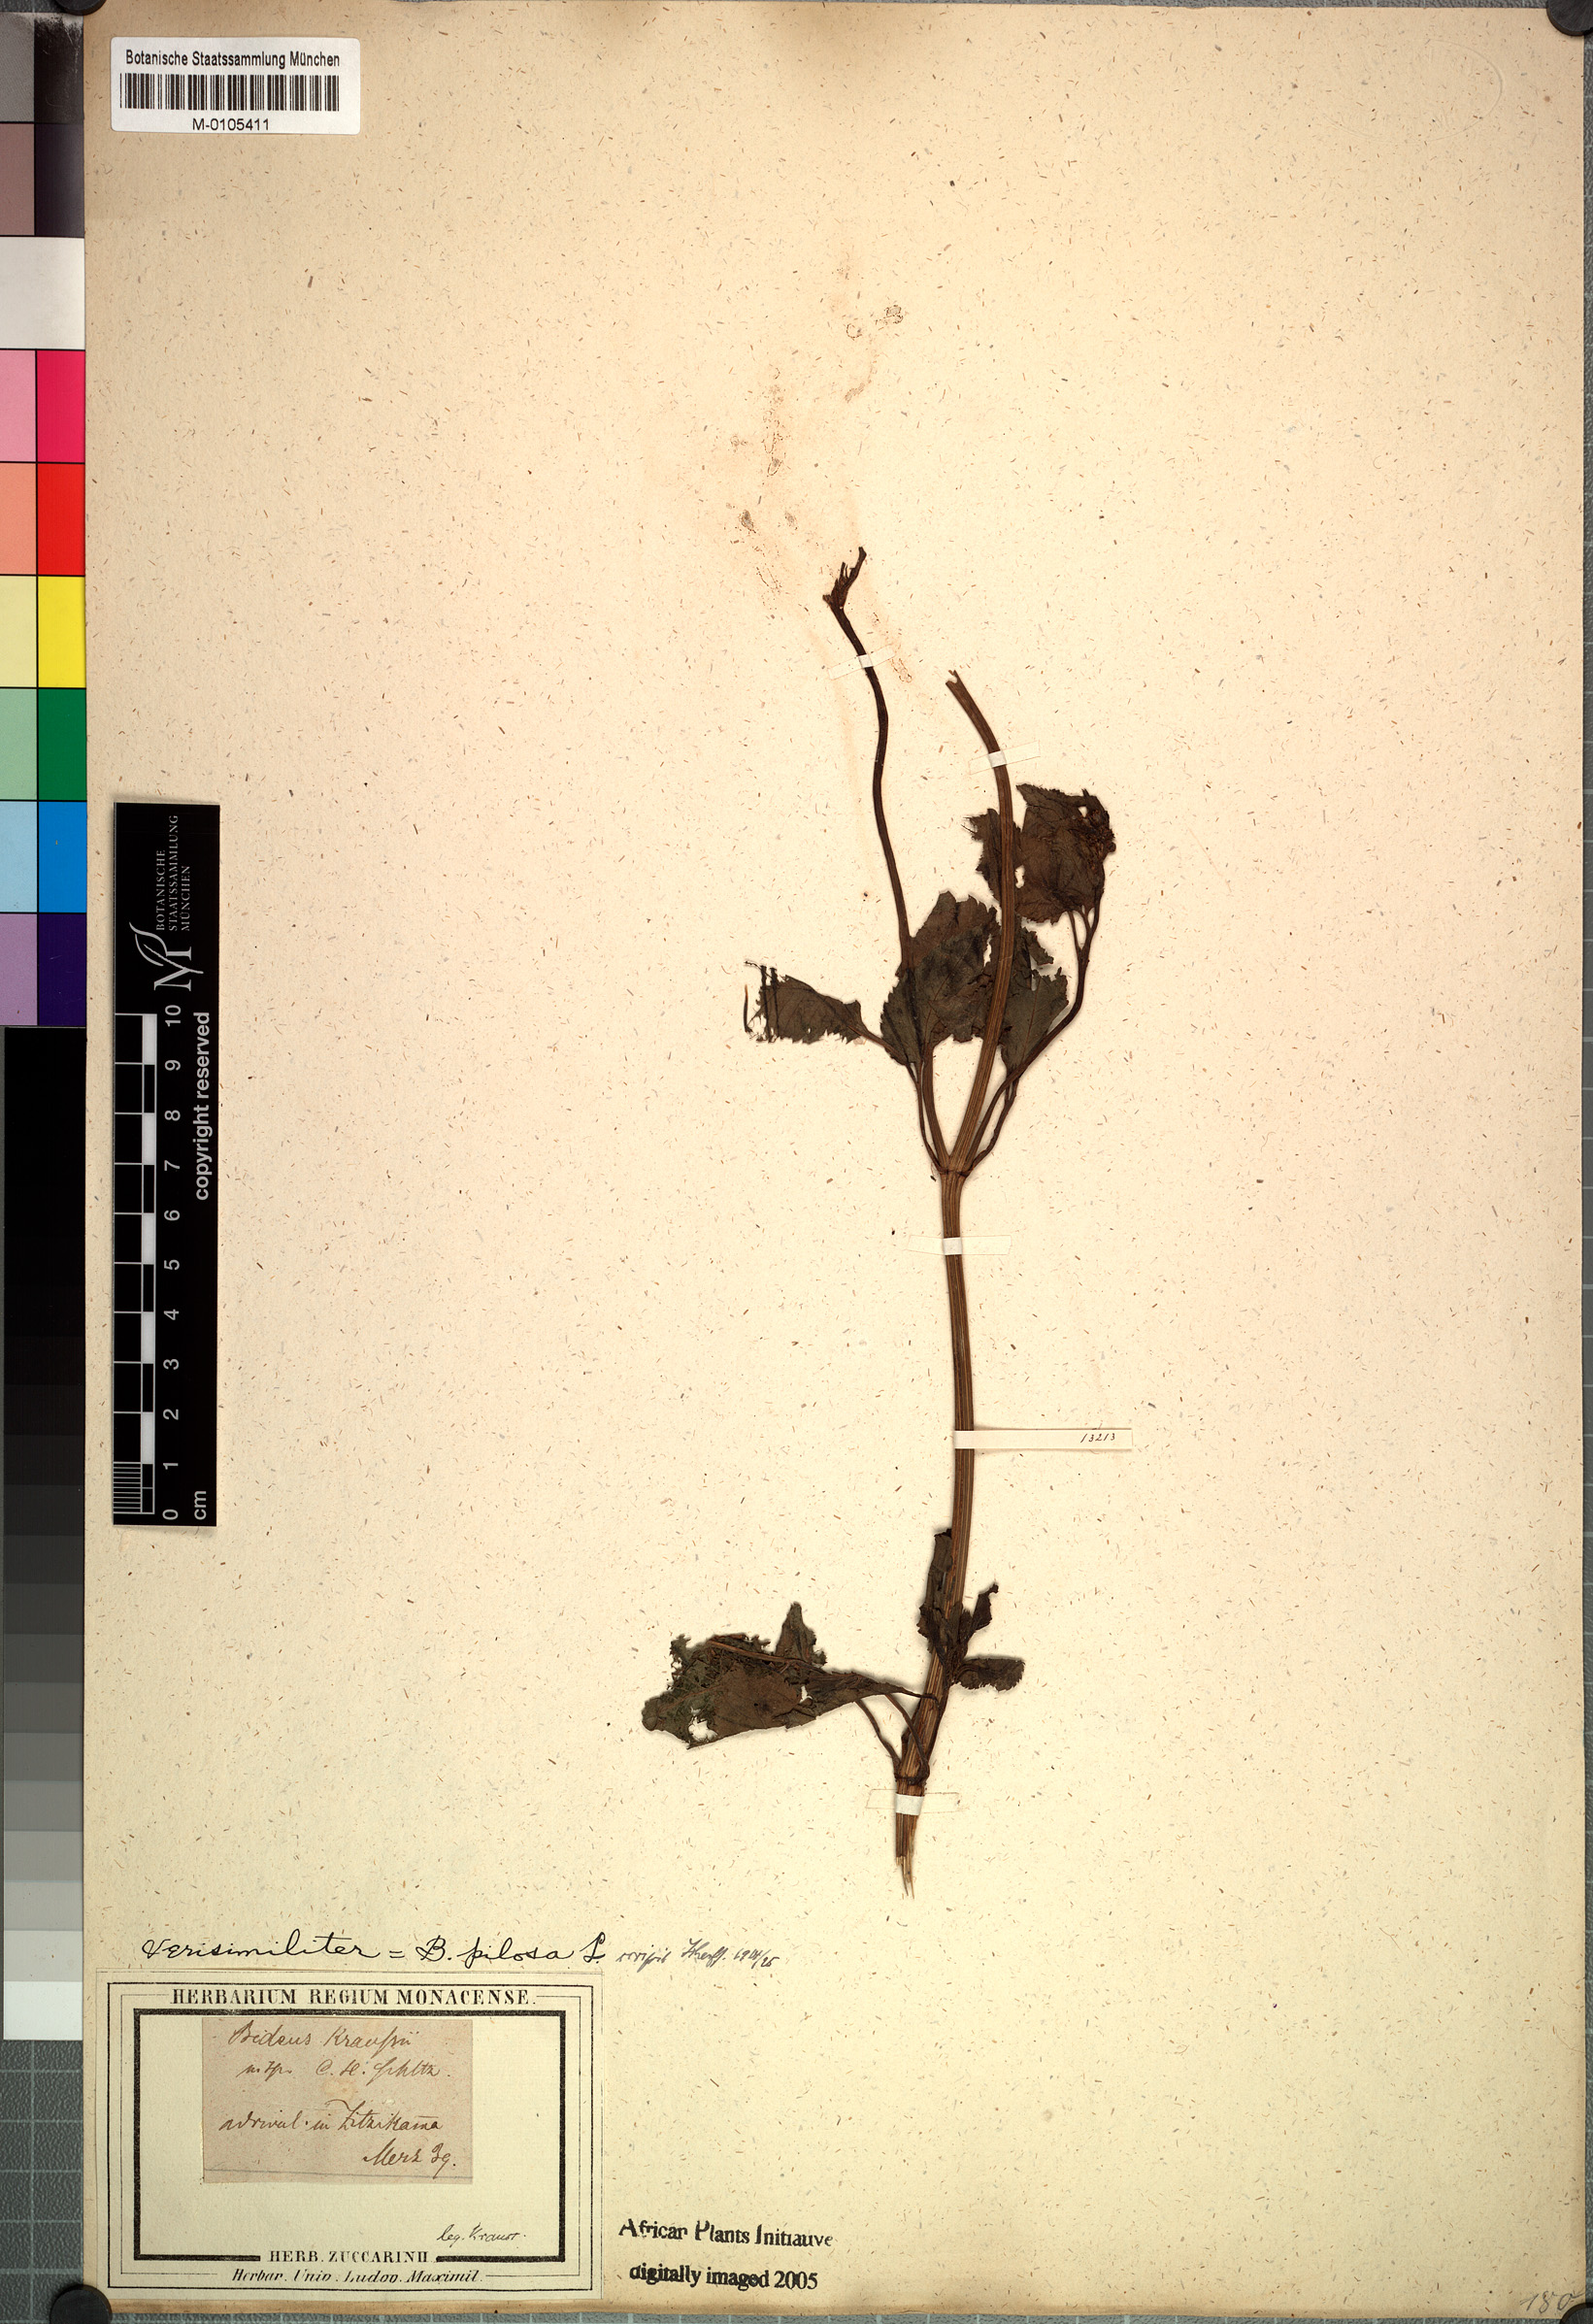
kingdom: Plantae
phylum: Tracheophyta
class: Magnoliopsida
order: Asterales
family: Asteraceae
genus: Bidens
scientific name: Bidens
